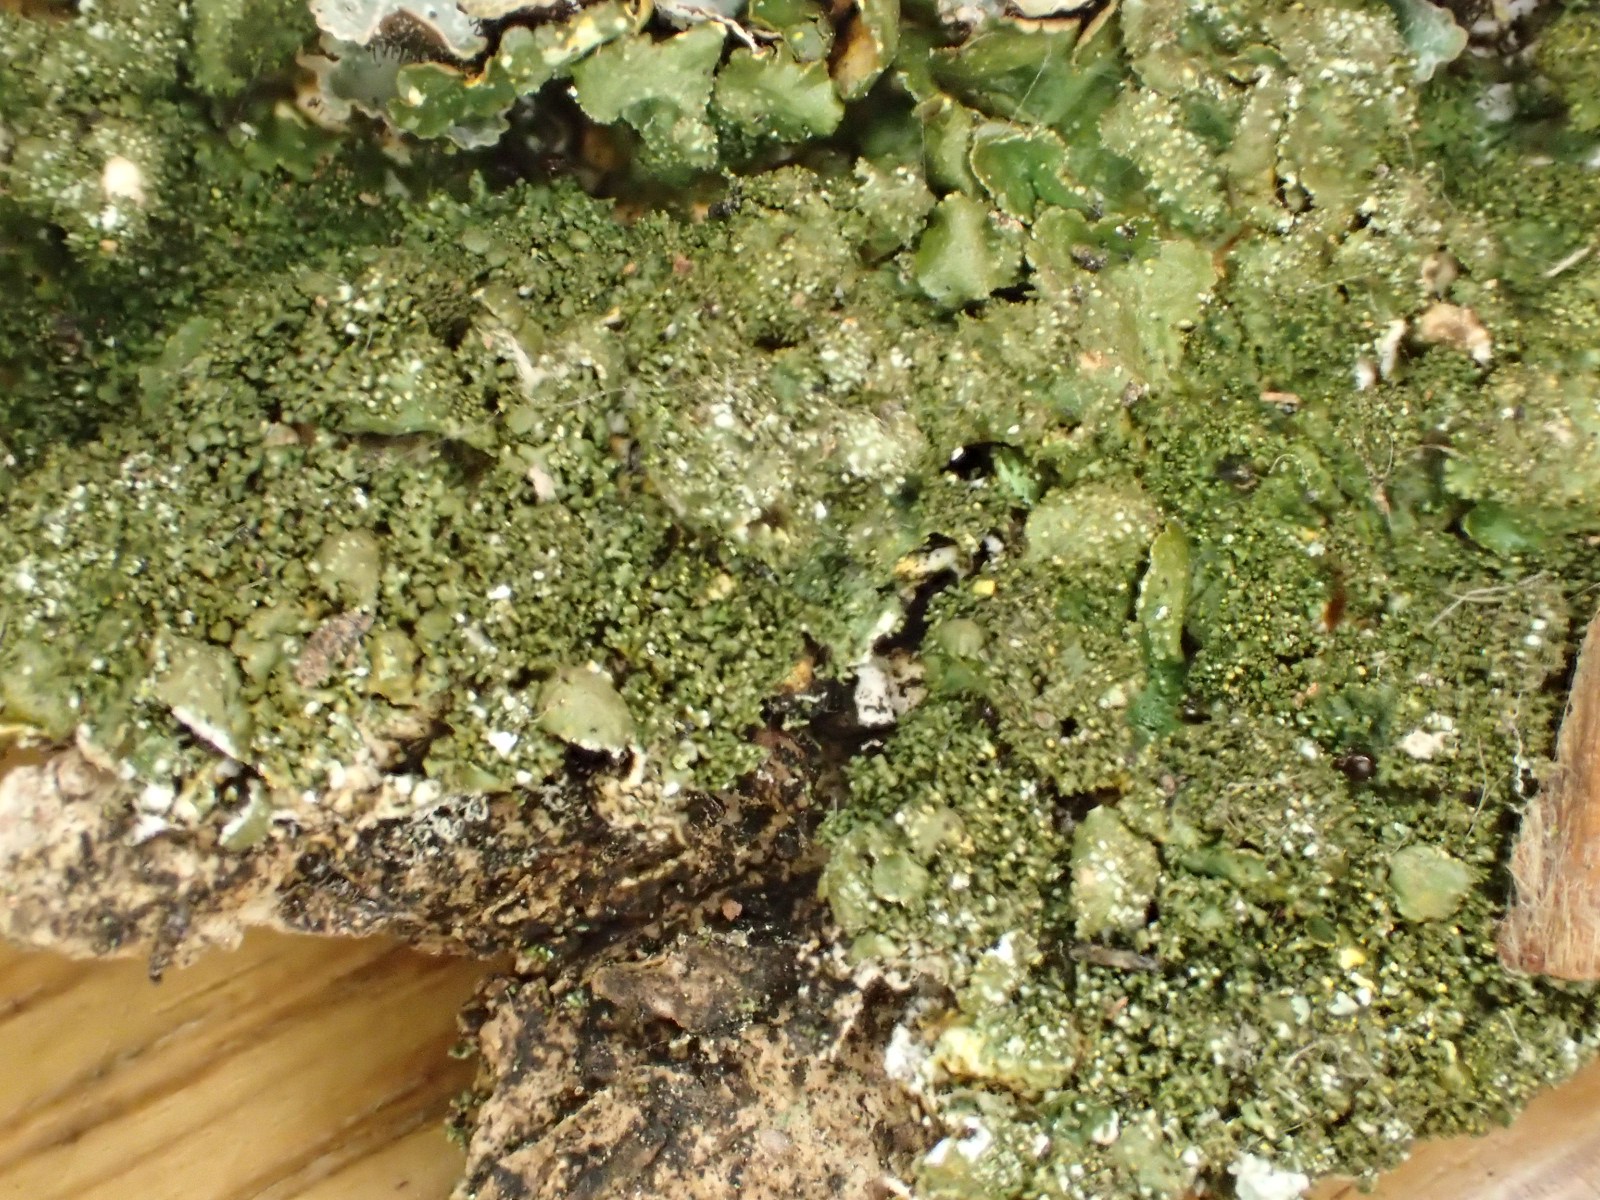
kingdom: Fungi
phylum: Ascomycota
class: Lecanoromycetes
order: Lecanorales
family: Parmeliaceae
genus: Melanohalea
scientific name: Melanohalea exasperatula
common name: kølle-skållav
